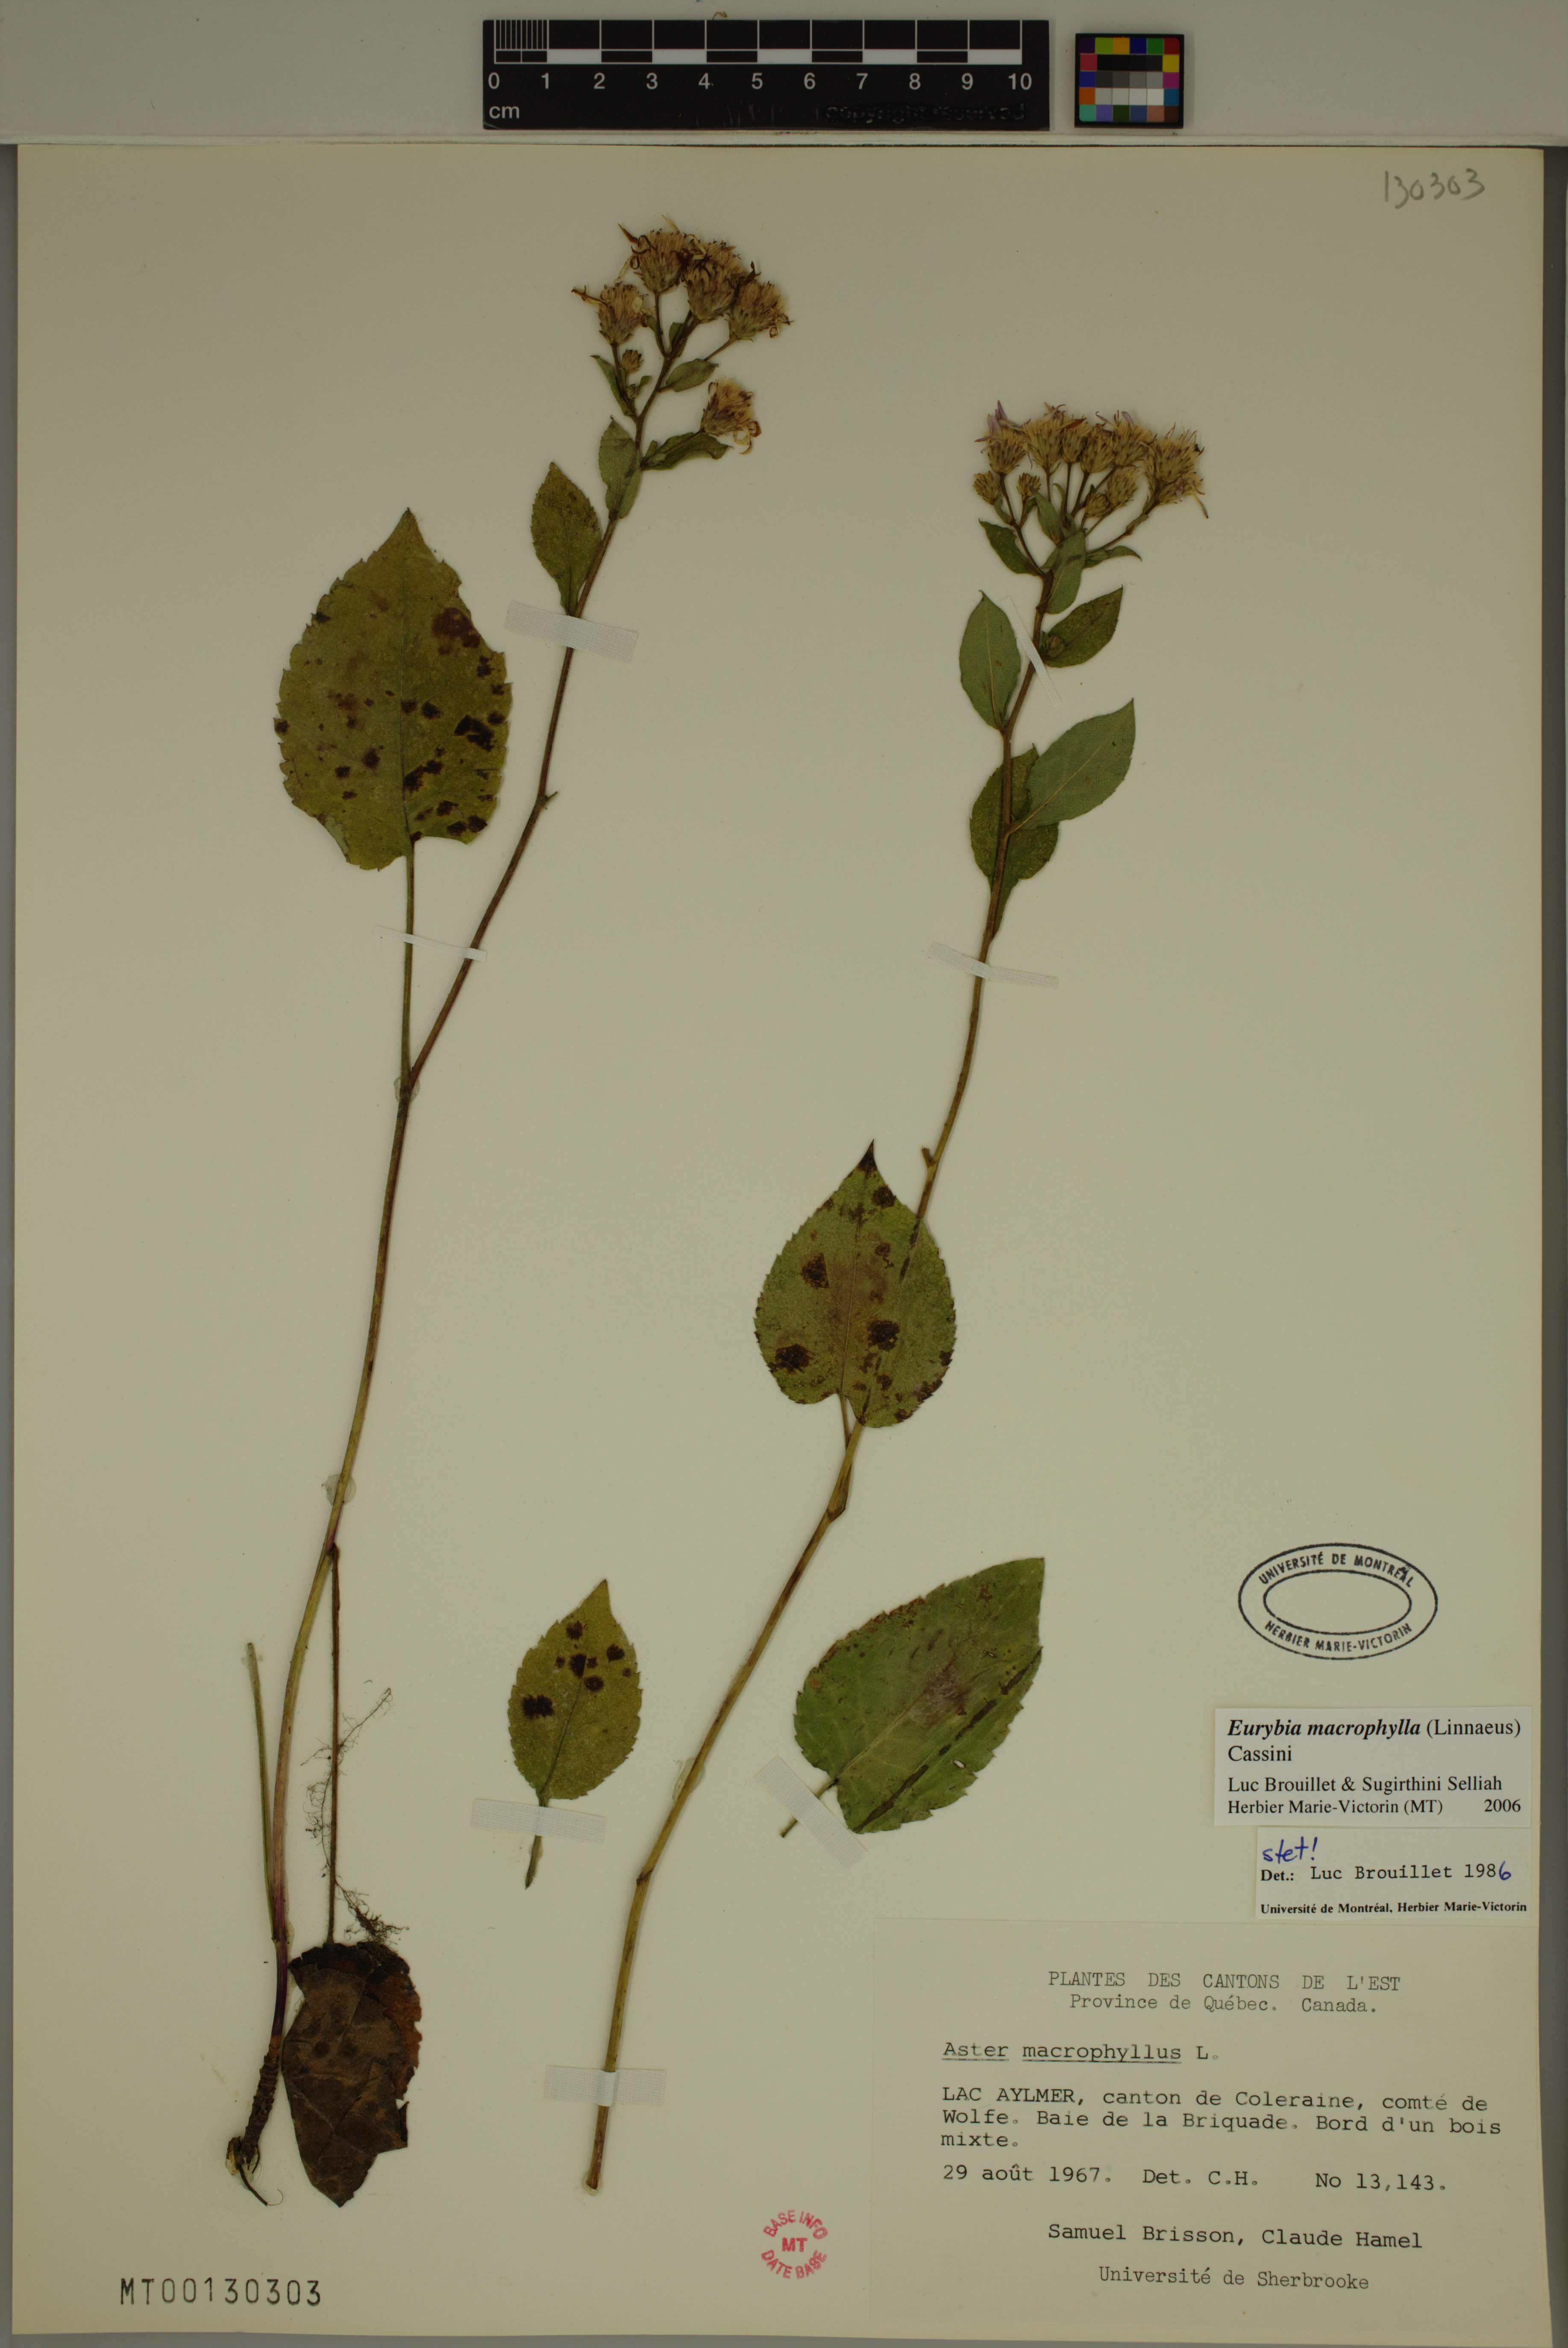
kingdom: Plantae
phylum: Tracheophyta
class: Magnoliopsida
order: Asterales
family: Asteraceae
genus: Eurybia
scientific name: Eurybia macrophylla
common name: Big-leaved aster
